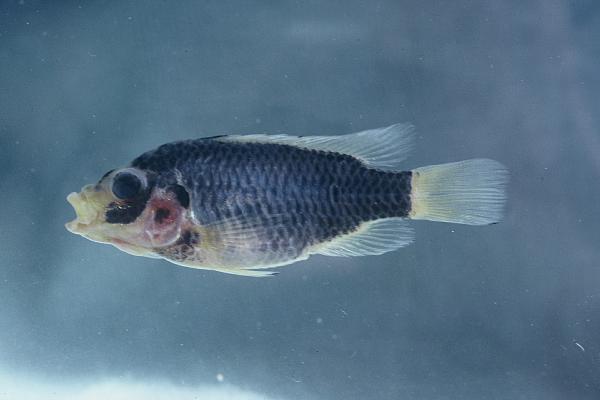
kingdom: Animalia
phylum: Chordata
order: Perciformes
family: Cichlidae
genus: Tilapia
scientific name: Tilapia guinasana
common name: Otjikoto tilapia
